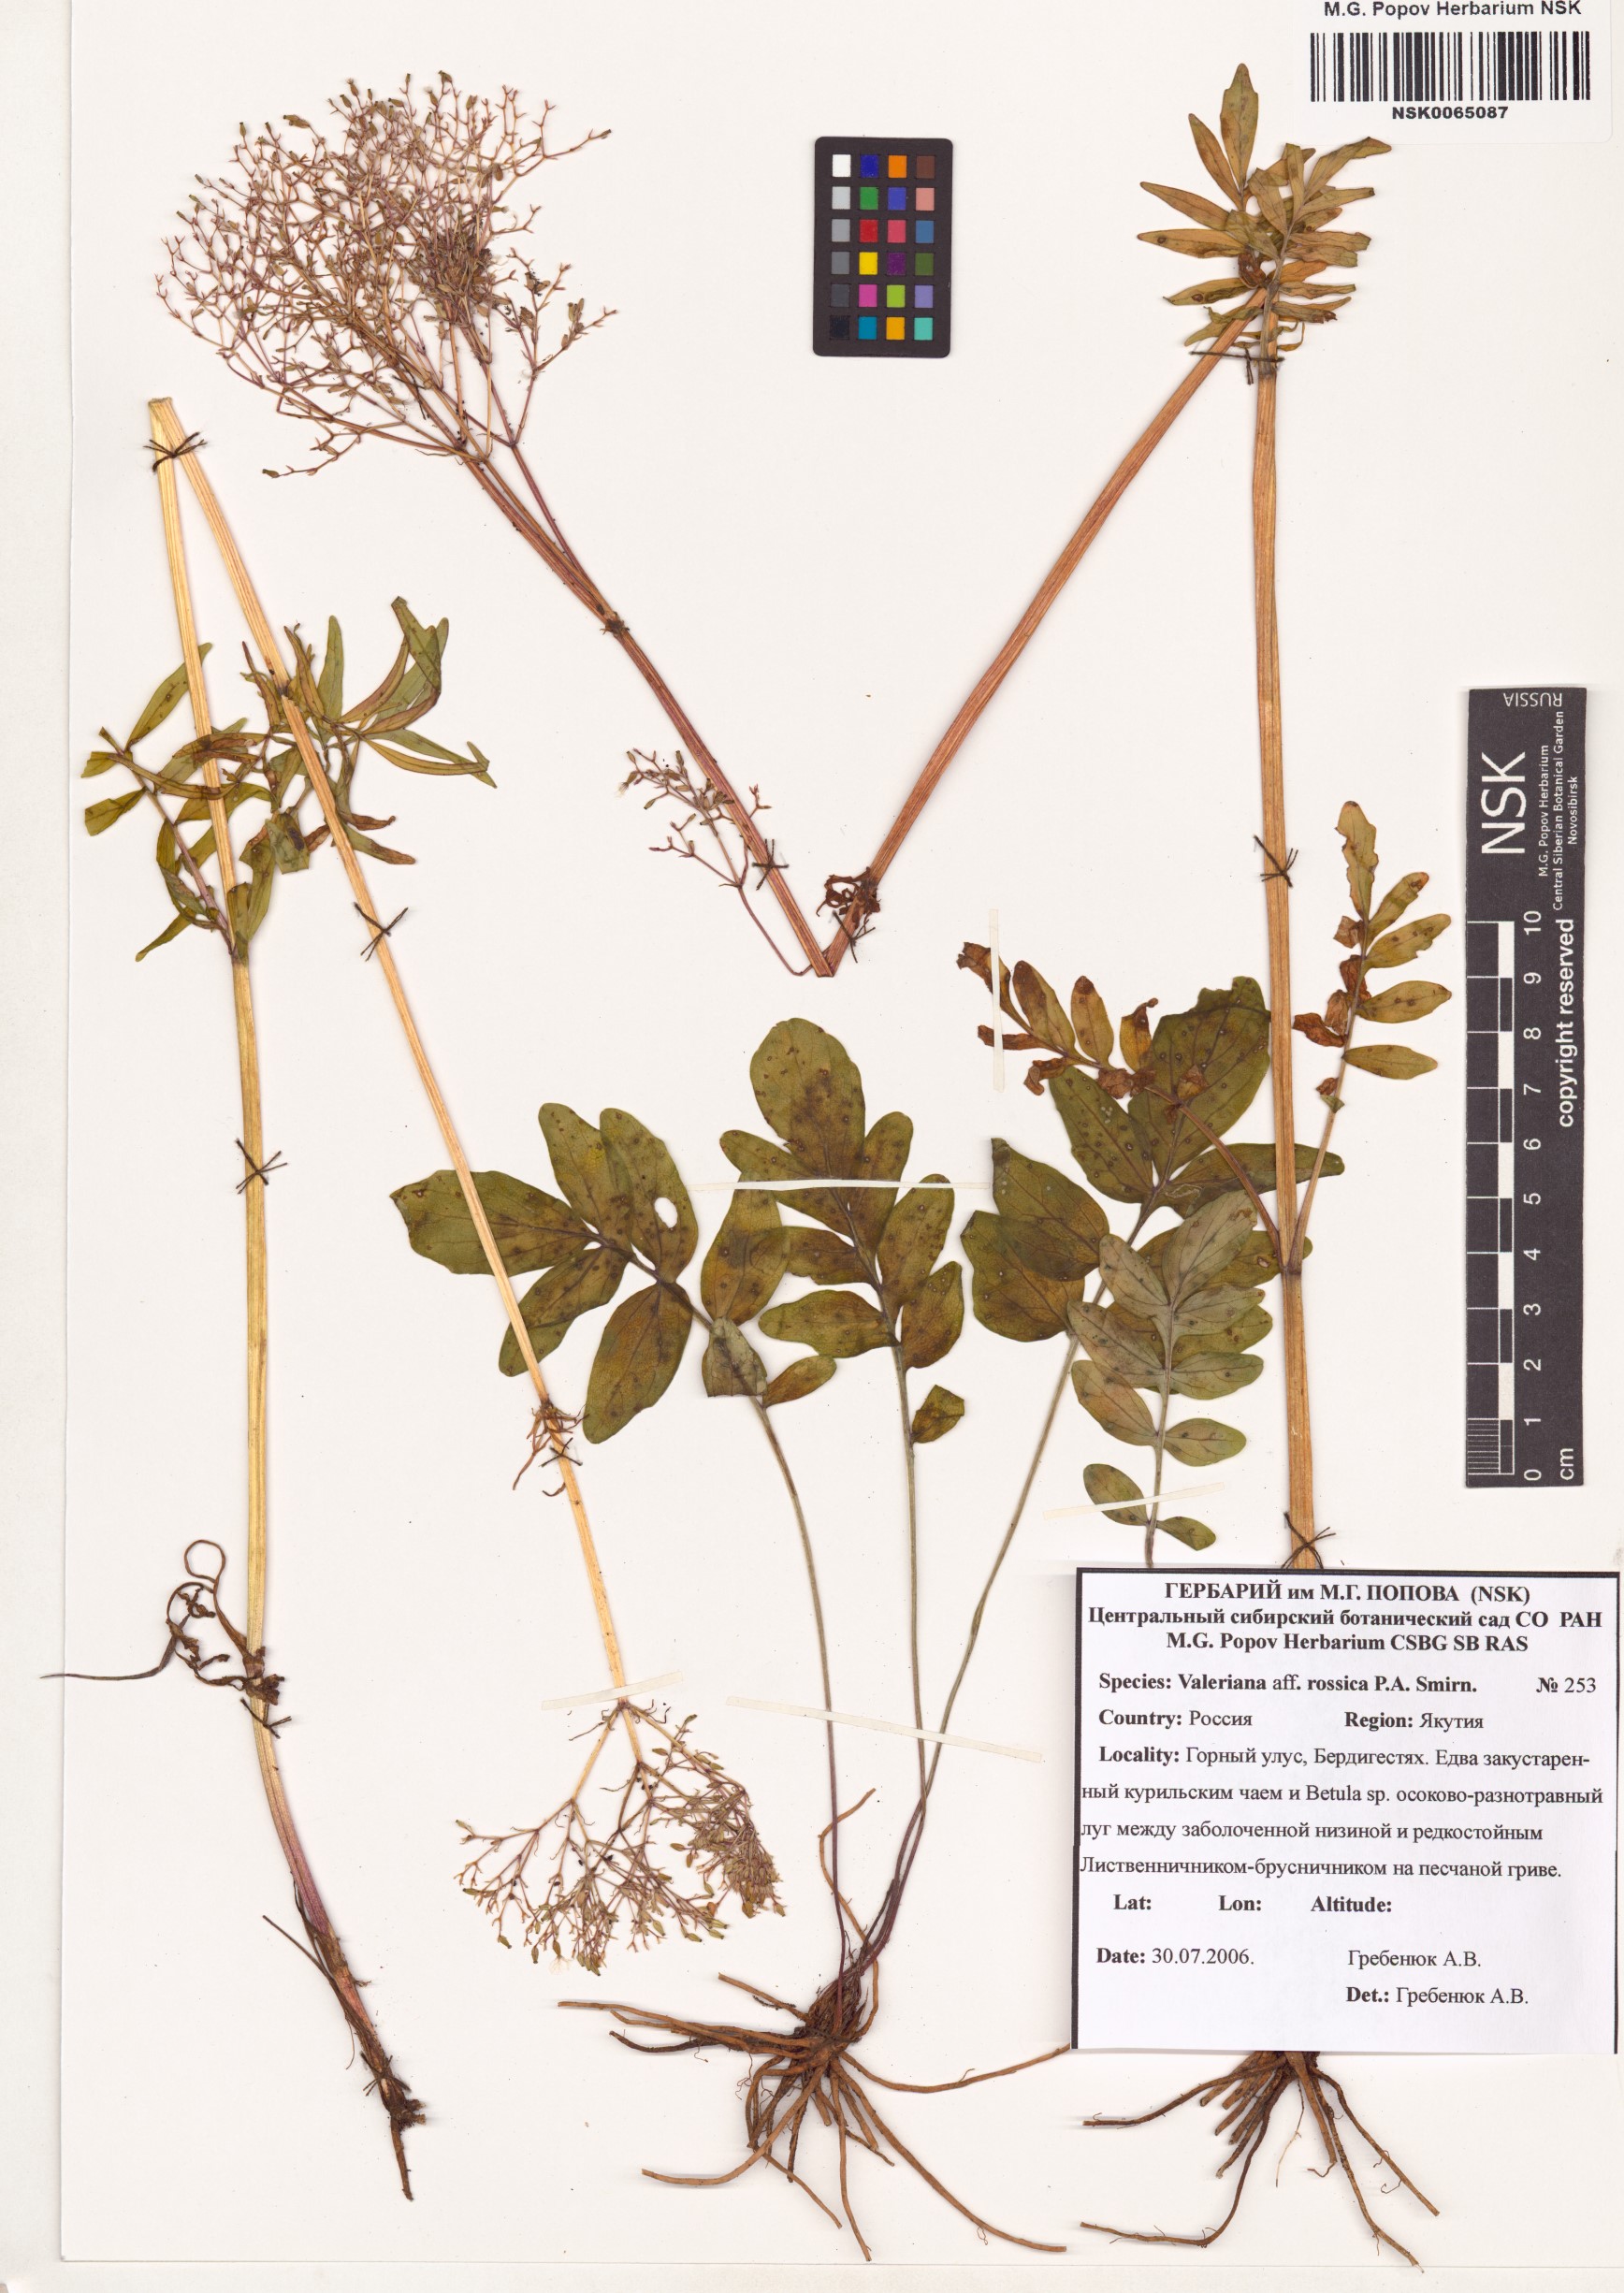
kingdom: Plantae
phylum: Tracheophyta
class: Magnoliopsida
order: Dipsacales
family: Caprifoliaceae
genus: Valeriana
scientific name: Valeriana rossica
